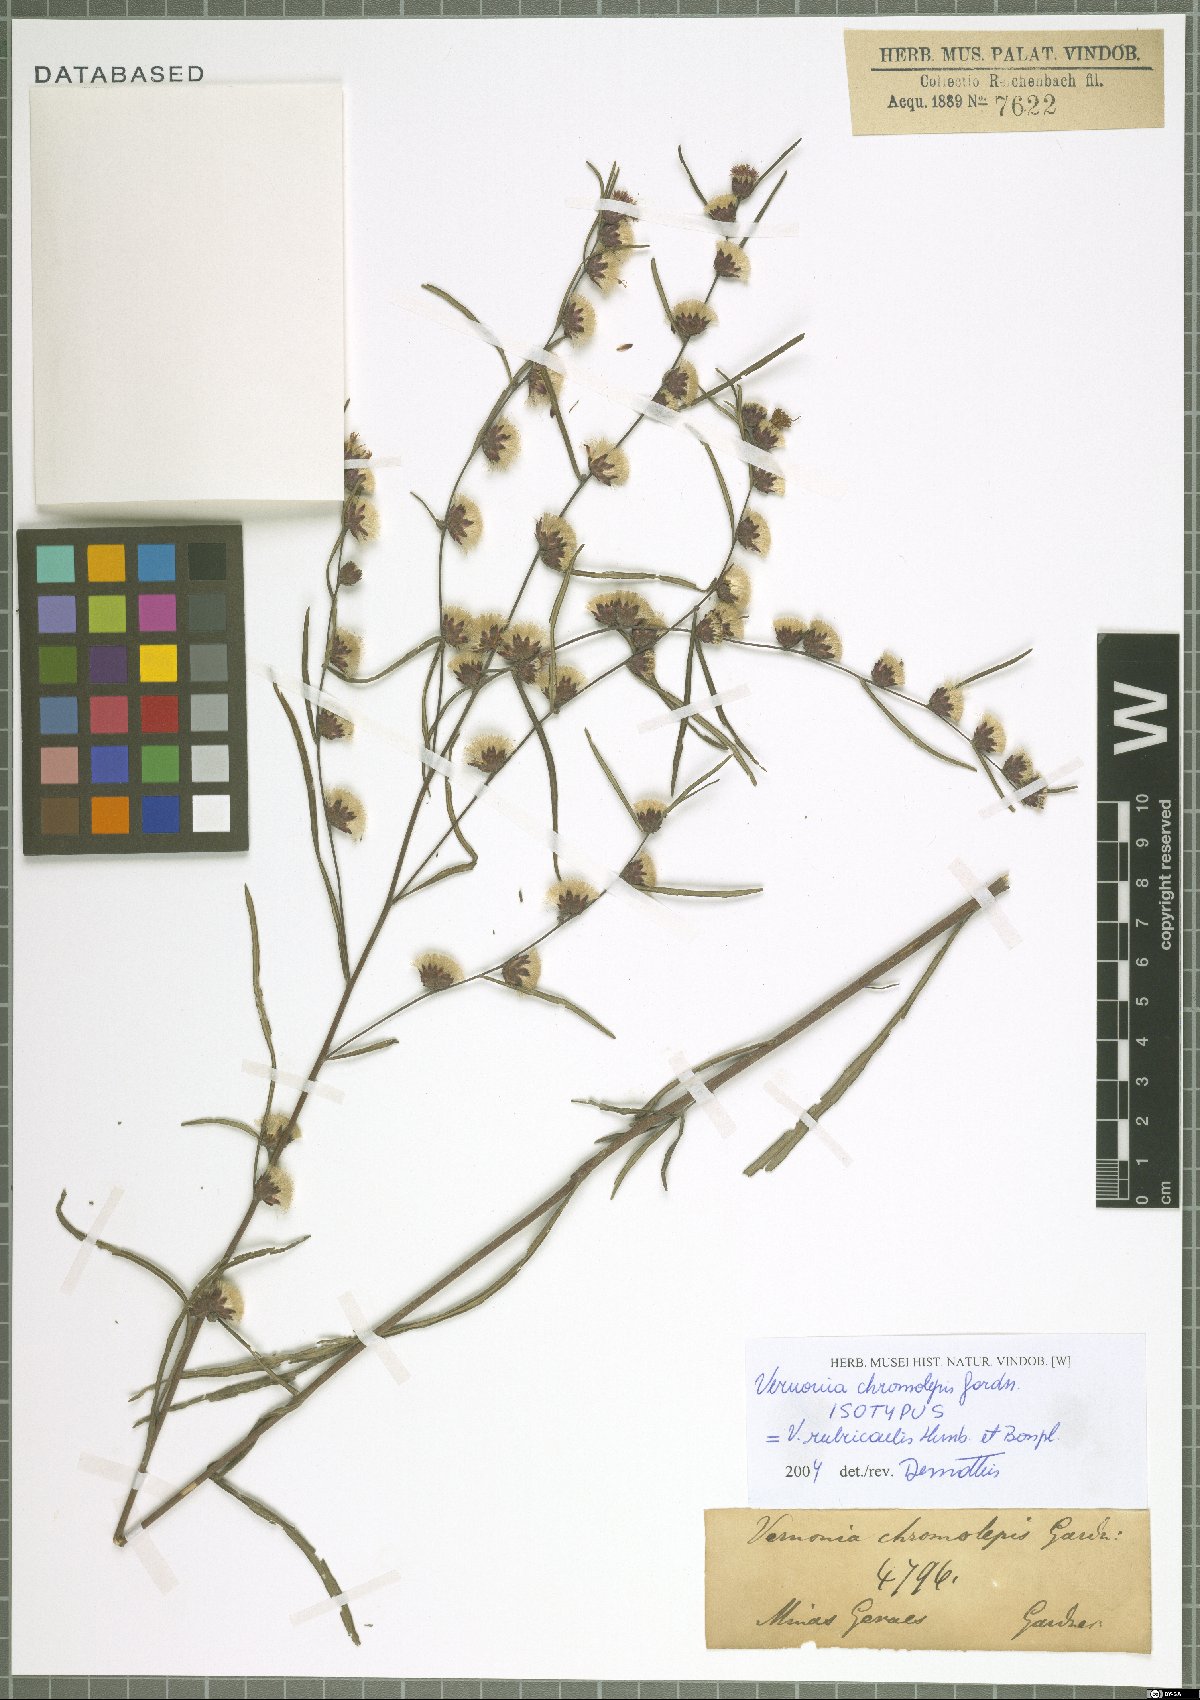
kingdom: Plantae
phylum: Tracheophyta
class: Magnoliopsida
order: Asterales
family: Asteraceae
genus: Lessingianthus
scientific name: Lessingianthus rubricaulis
